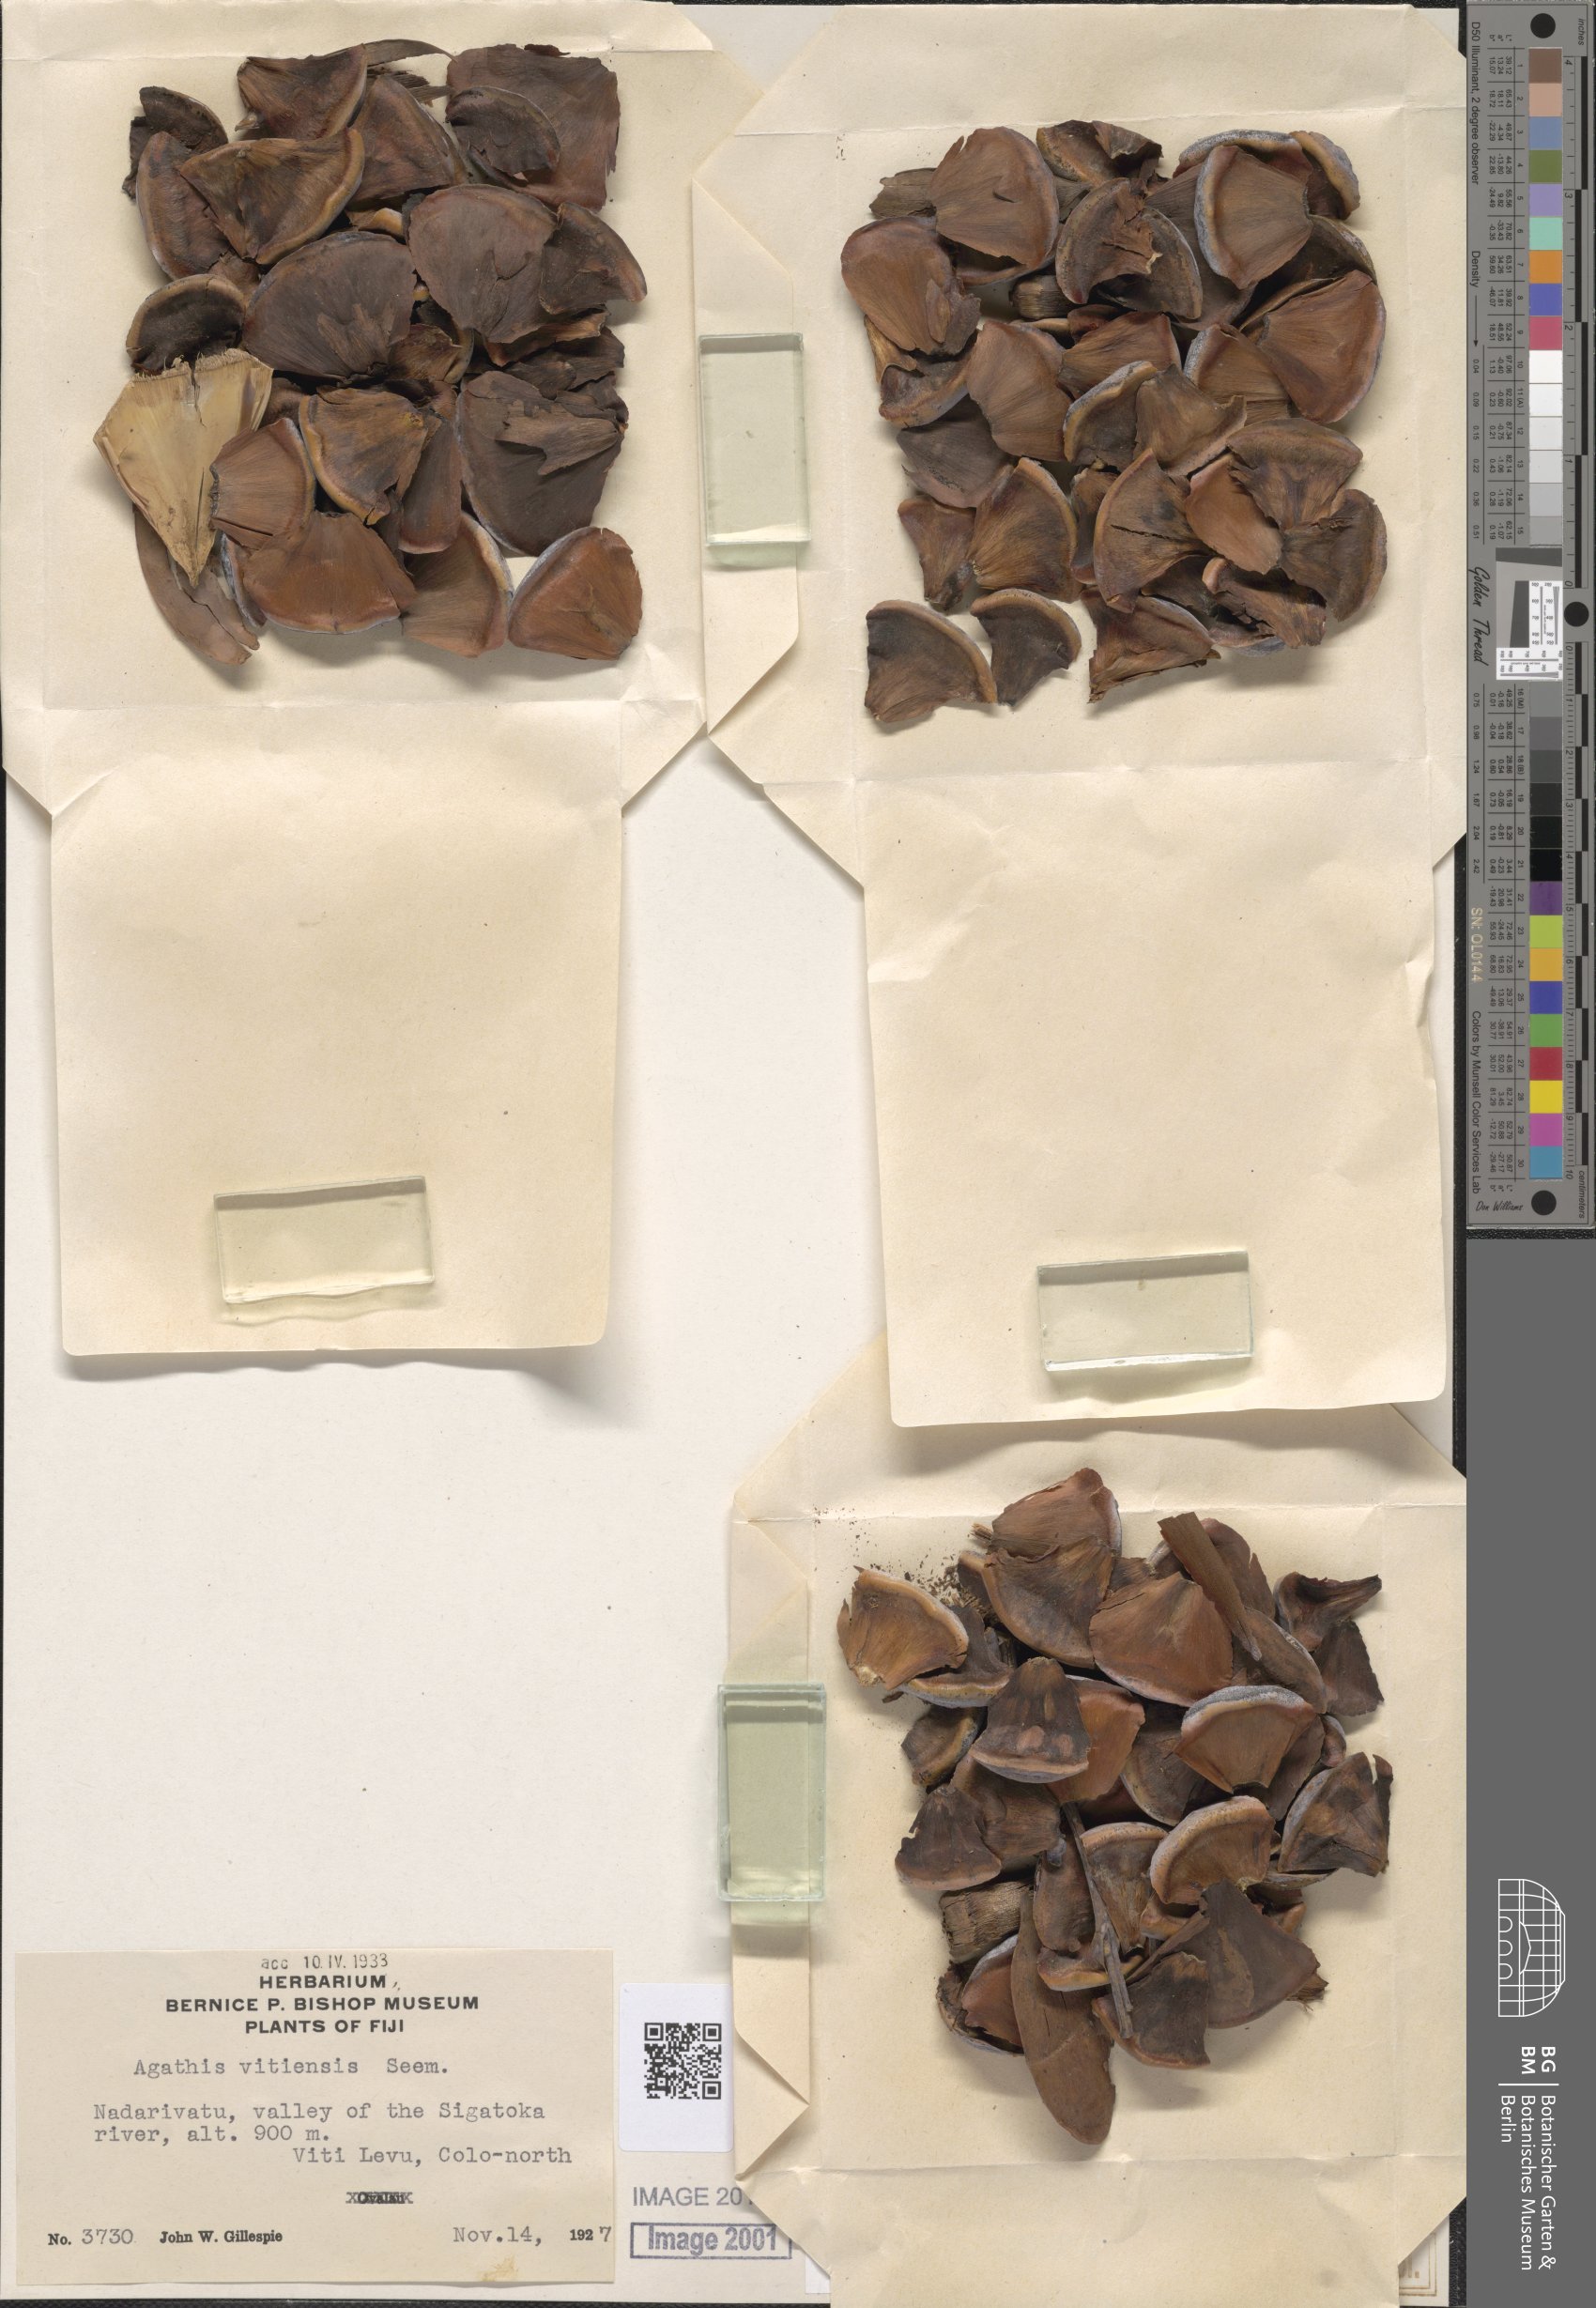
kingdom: Plantae
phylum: Tracheophyta
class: Pinopsida
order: Pinales
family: Araucariaceae
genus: Agathis
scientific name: Agathis macrophylla
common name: Fijian kauri pine
